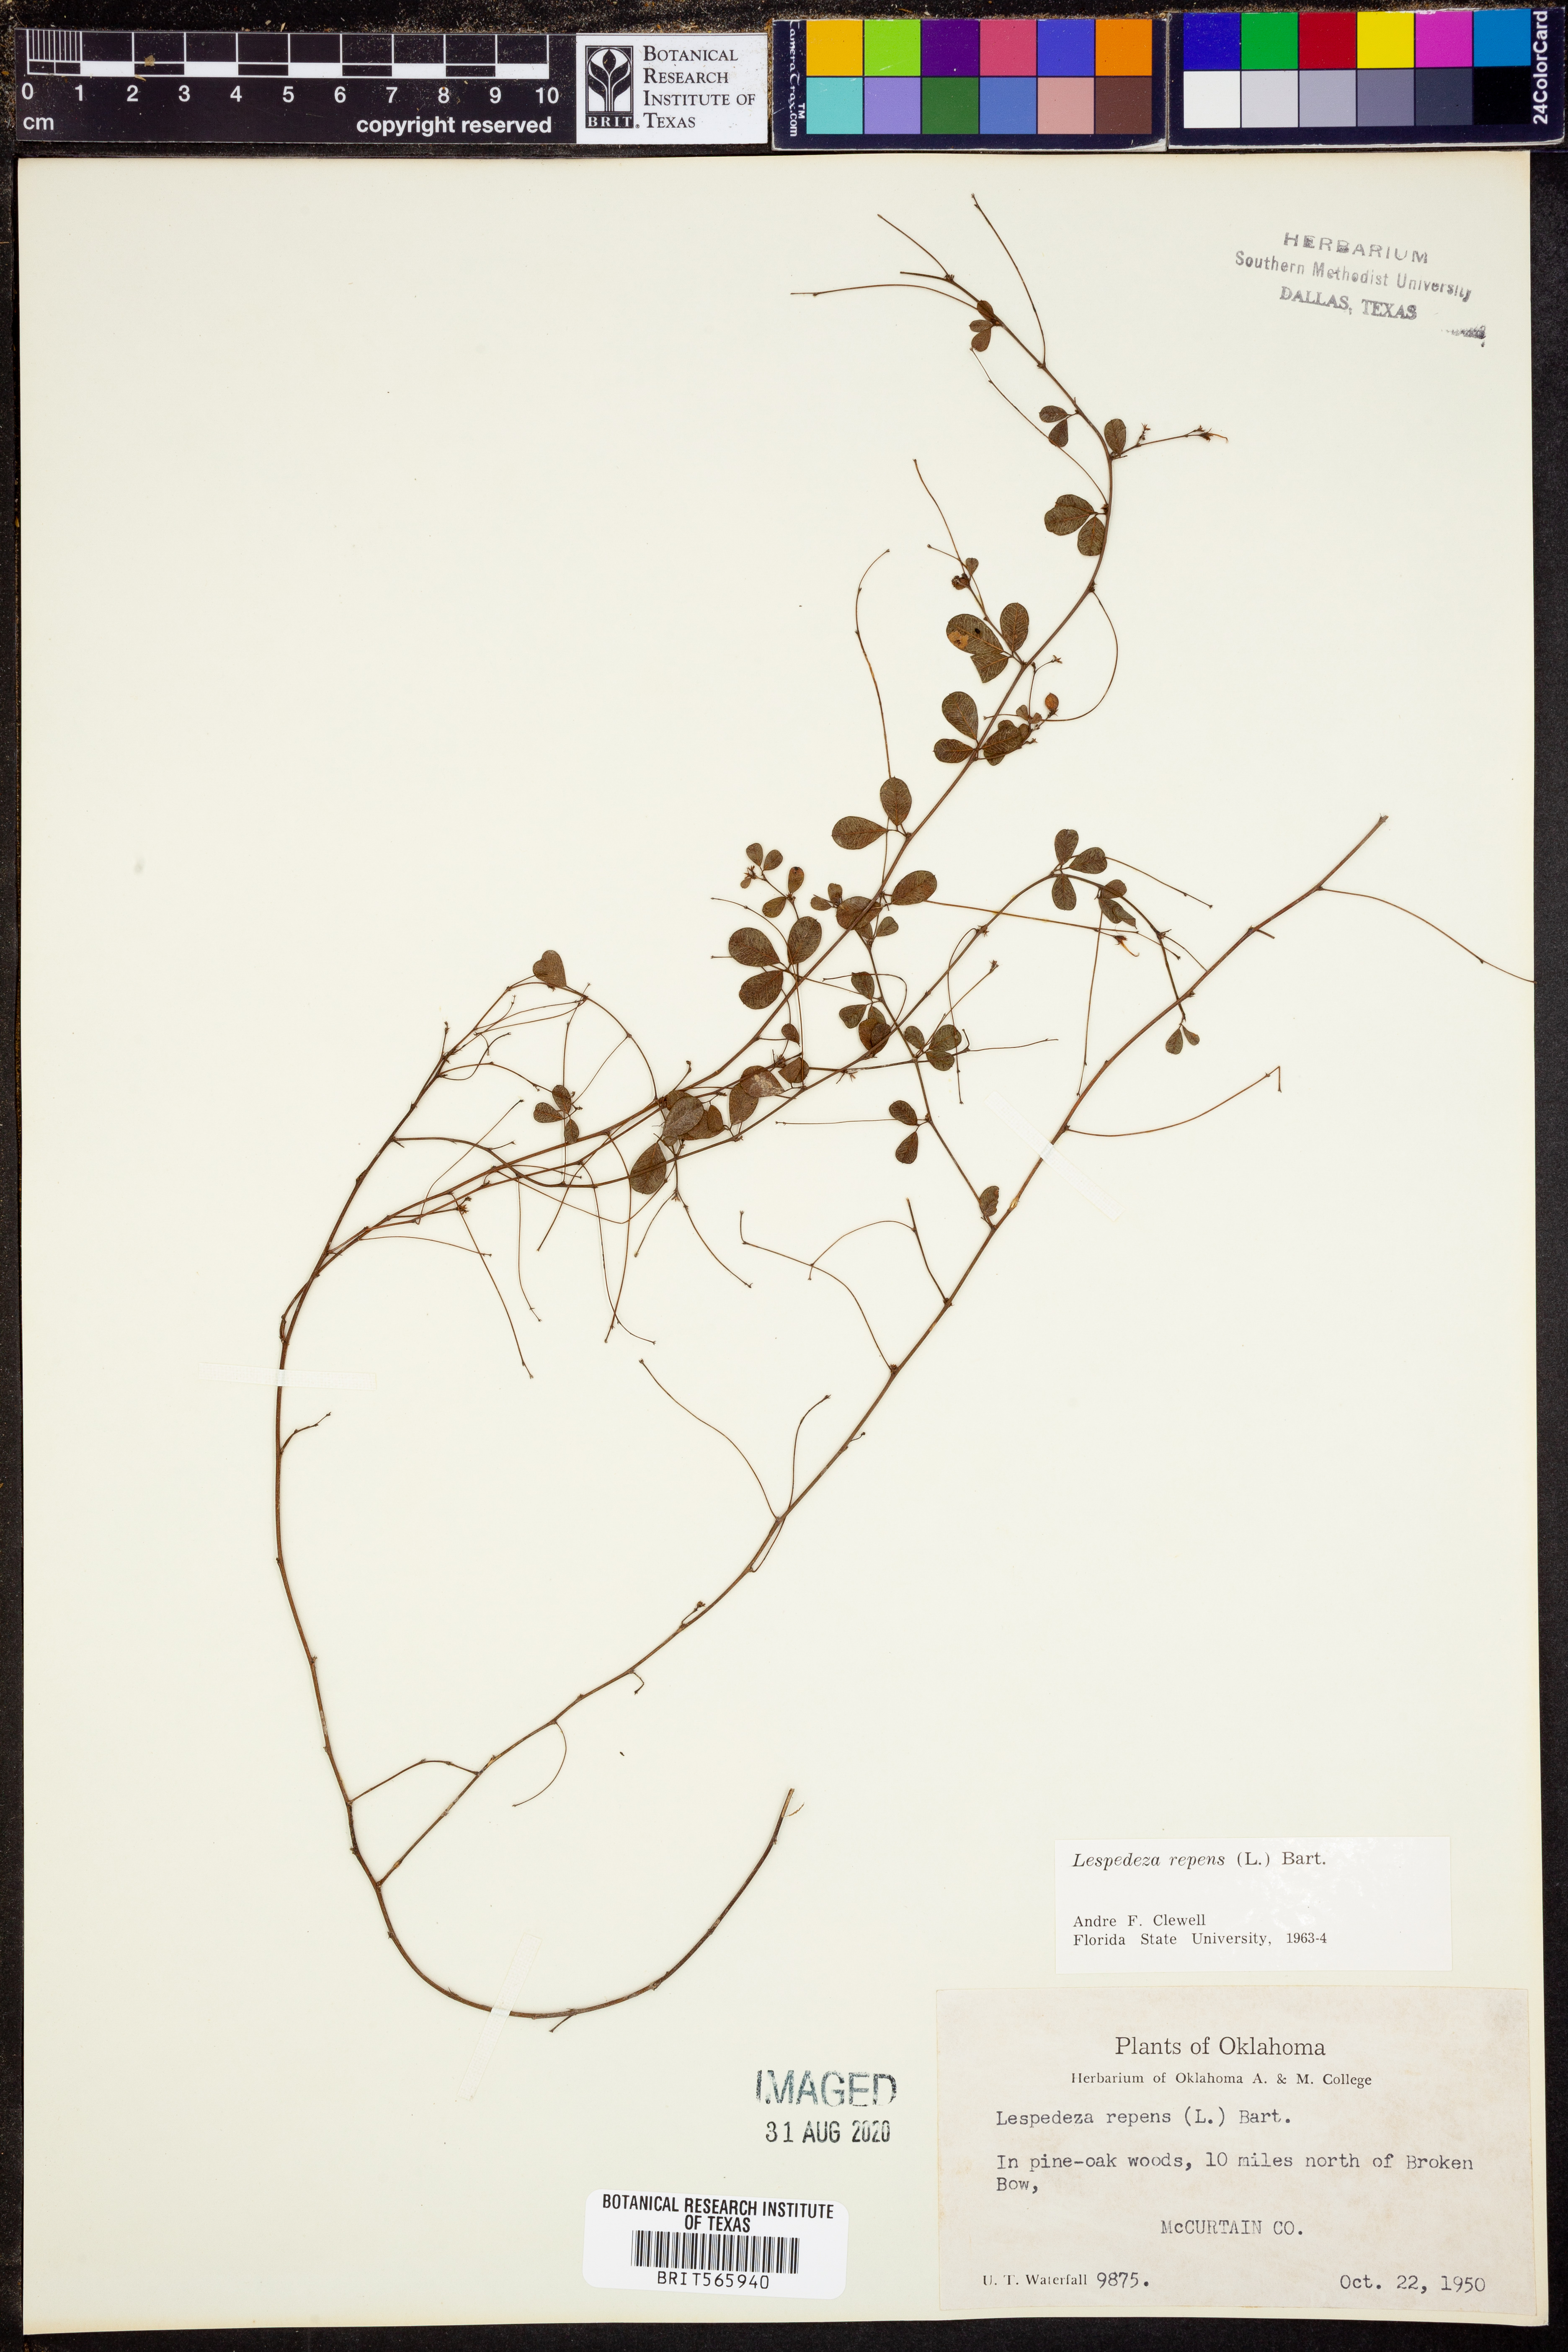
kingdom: Plantae
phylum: Tracheophyta
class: Magnoliopsida
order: Fabales
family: Fabaceae
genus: Lespedeza
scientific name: Lespedeza repens
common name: Creeping bush-clover
